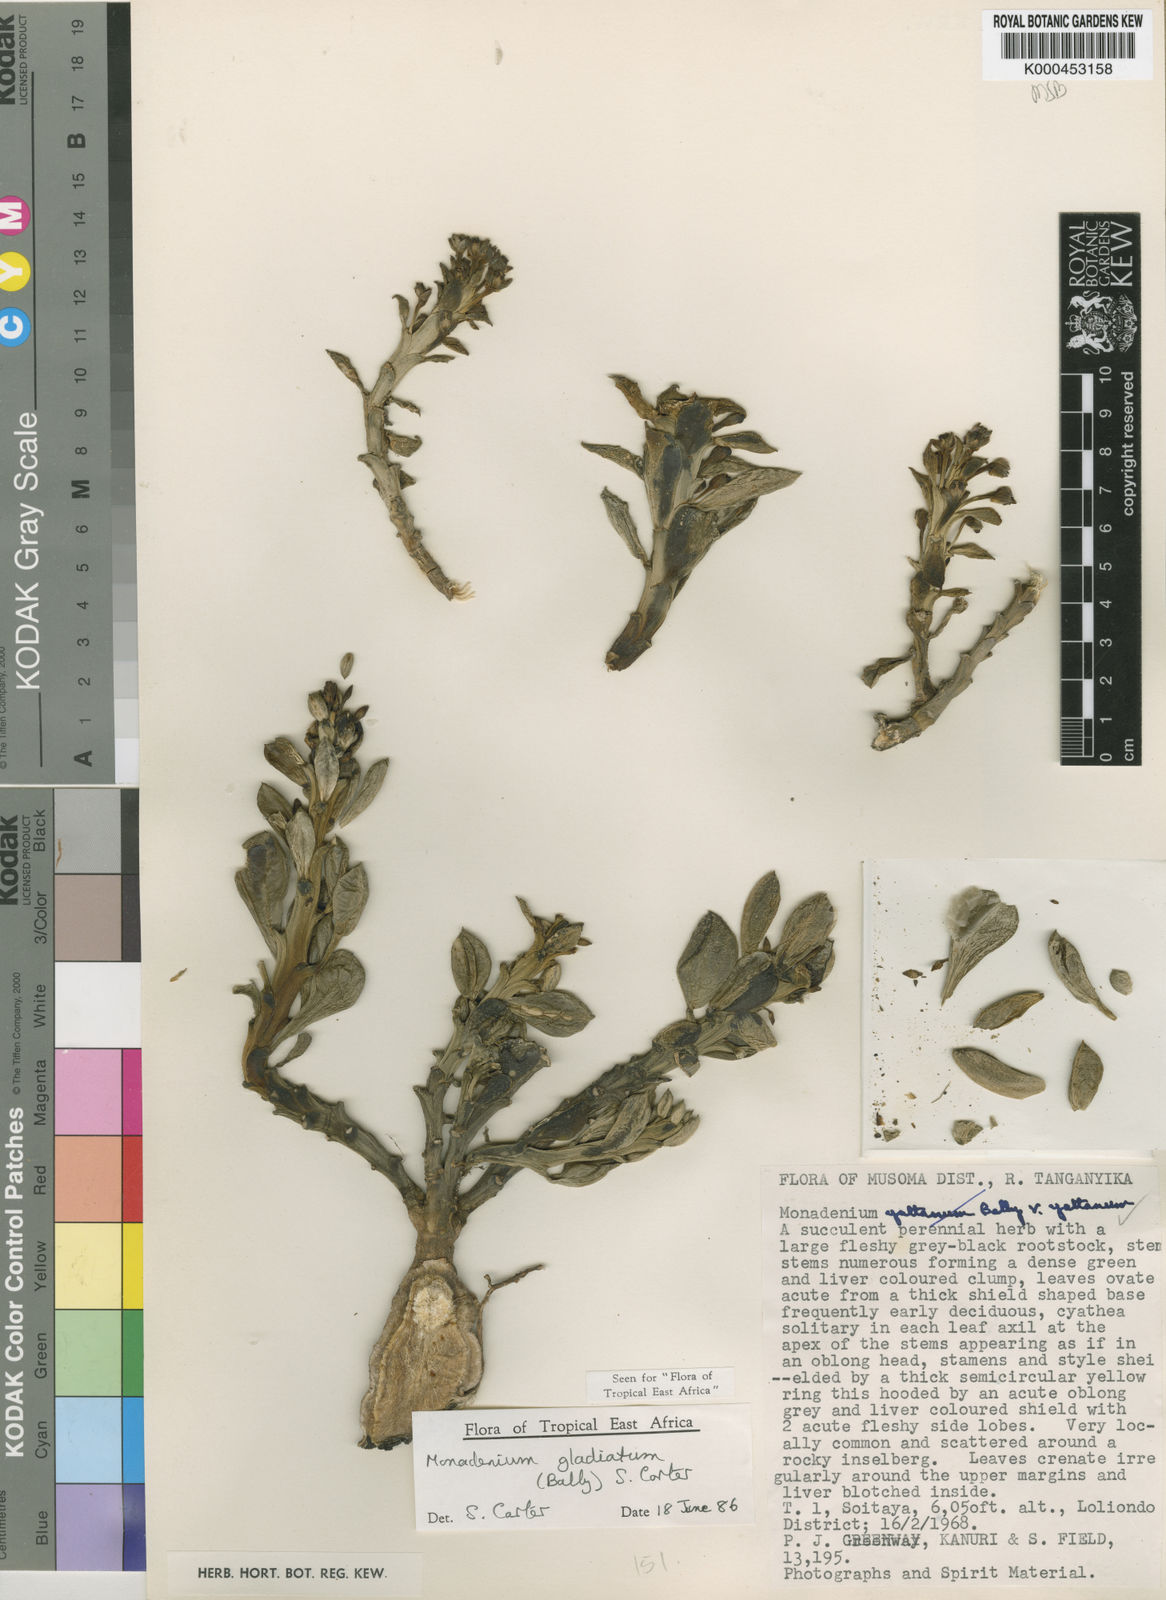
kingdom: Plantae
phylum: Tracheophyta
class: Magnoliopsida
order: Malpighiales
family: Euphorbiaceae
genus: Euphorbia
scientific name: Euphorbia gladiata
